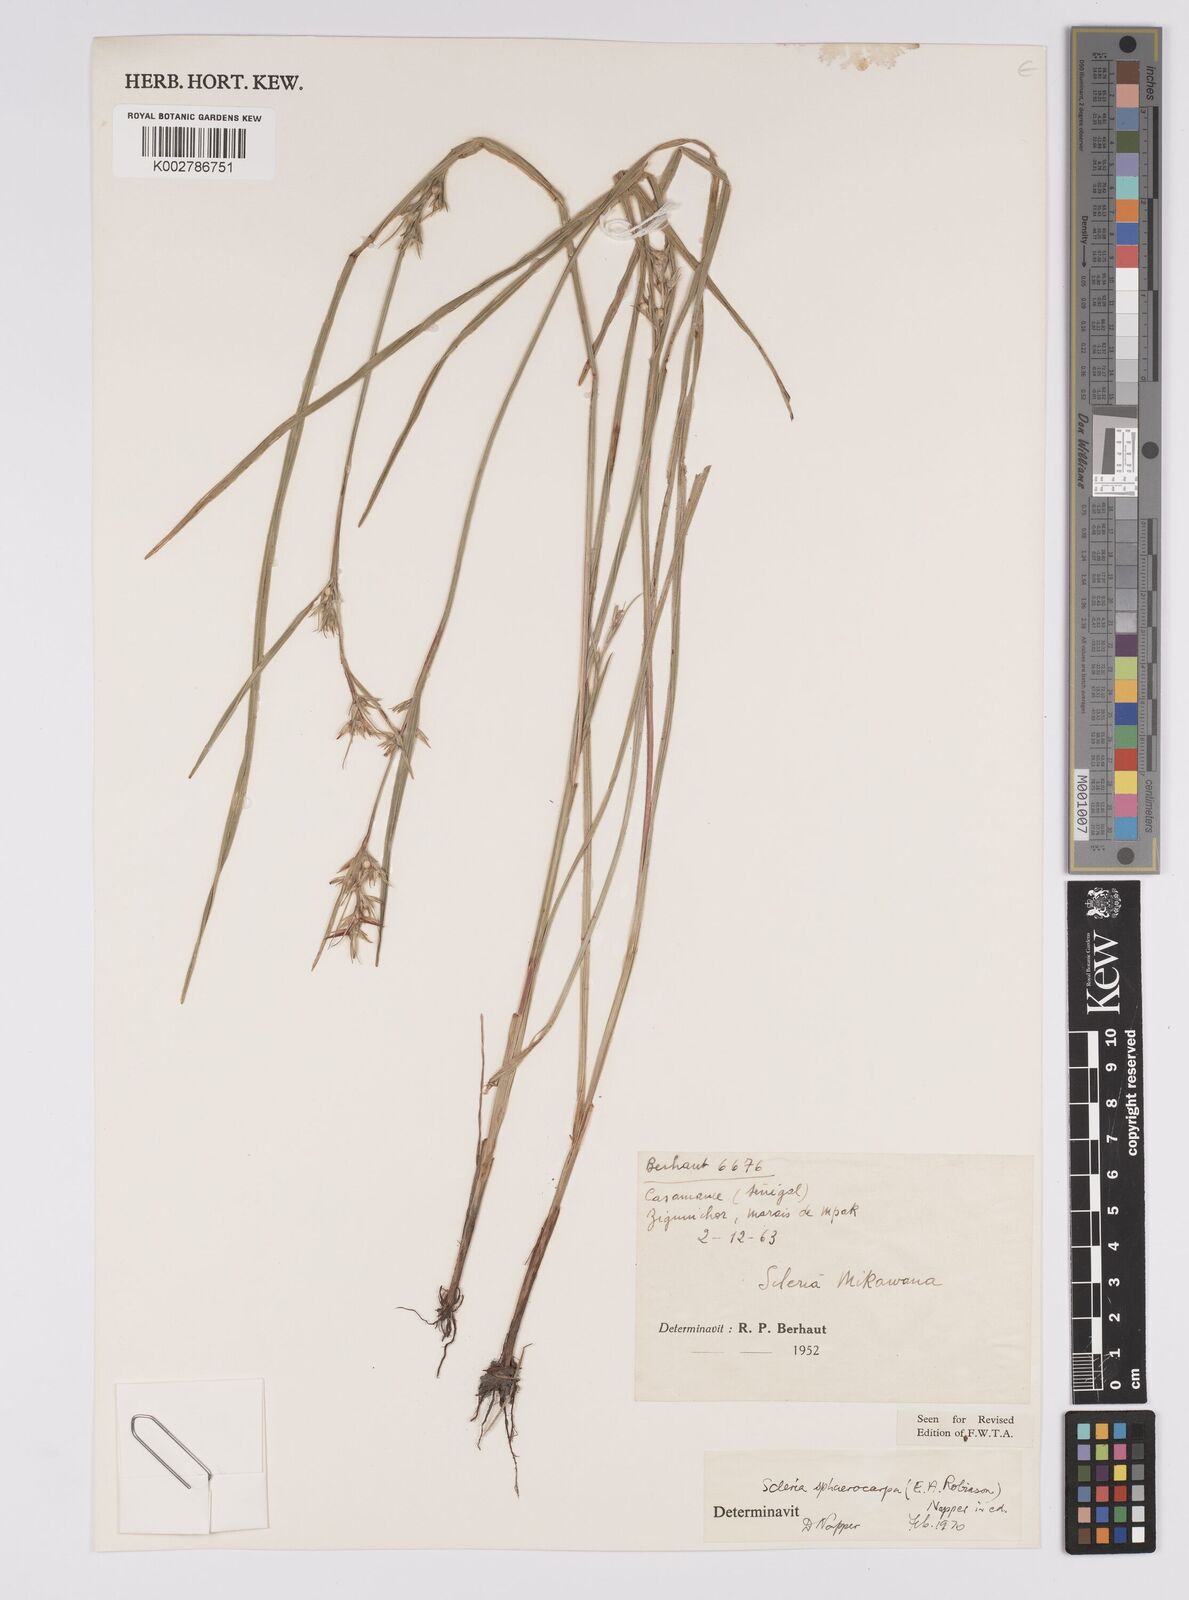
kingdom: Plantae
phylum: Tracheophyta
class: Liliopsida
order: Poales
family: Cyperaceae
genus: Scleria
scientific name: Scleria tessellata
